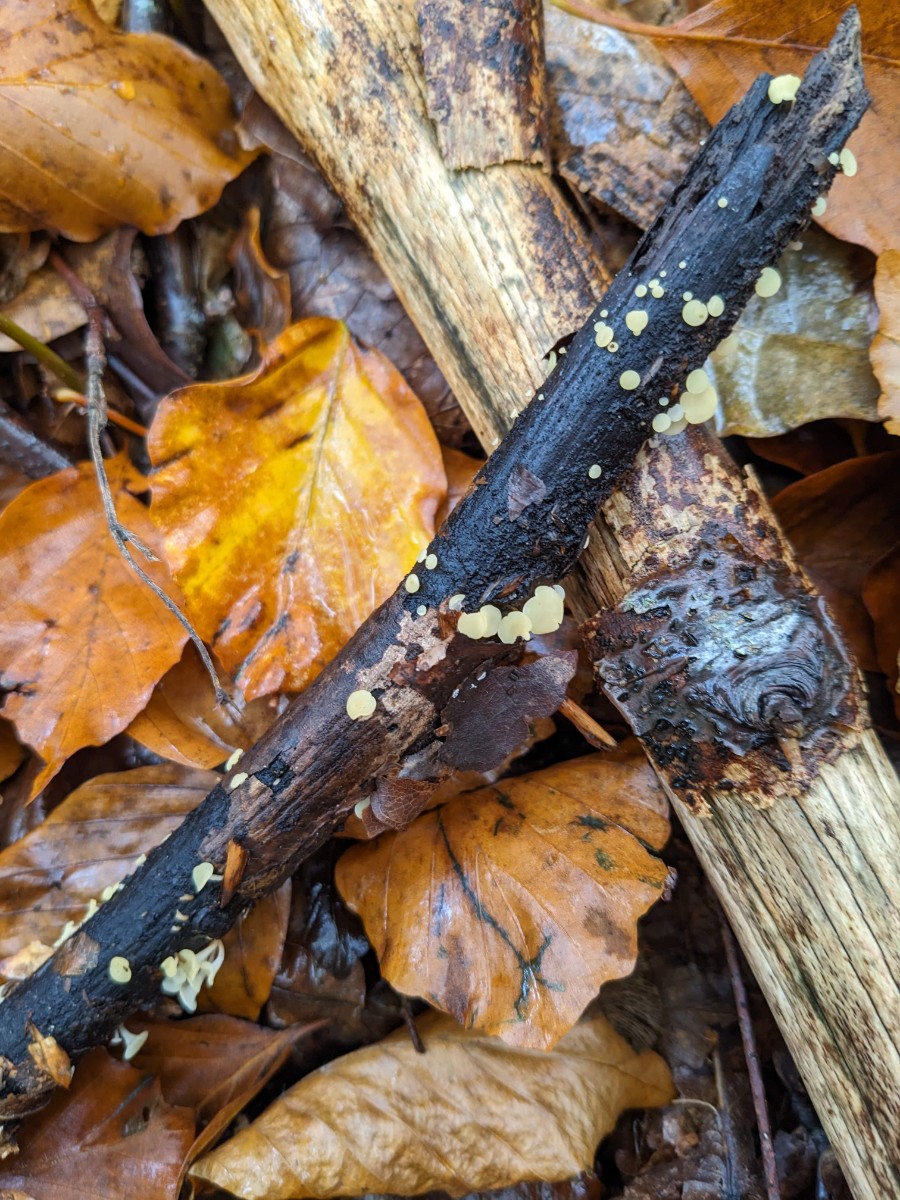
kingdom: Fungi
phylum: Ascomycota
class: Leotiomycetes
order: Helotiales
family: Helotiaceae
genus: Hymenoscyphus
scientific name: Hymenoscyphus serotinus
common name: krumsporet stilkskive
